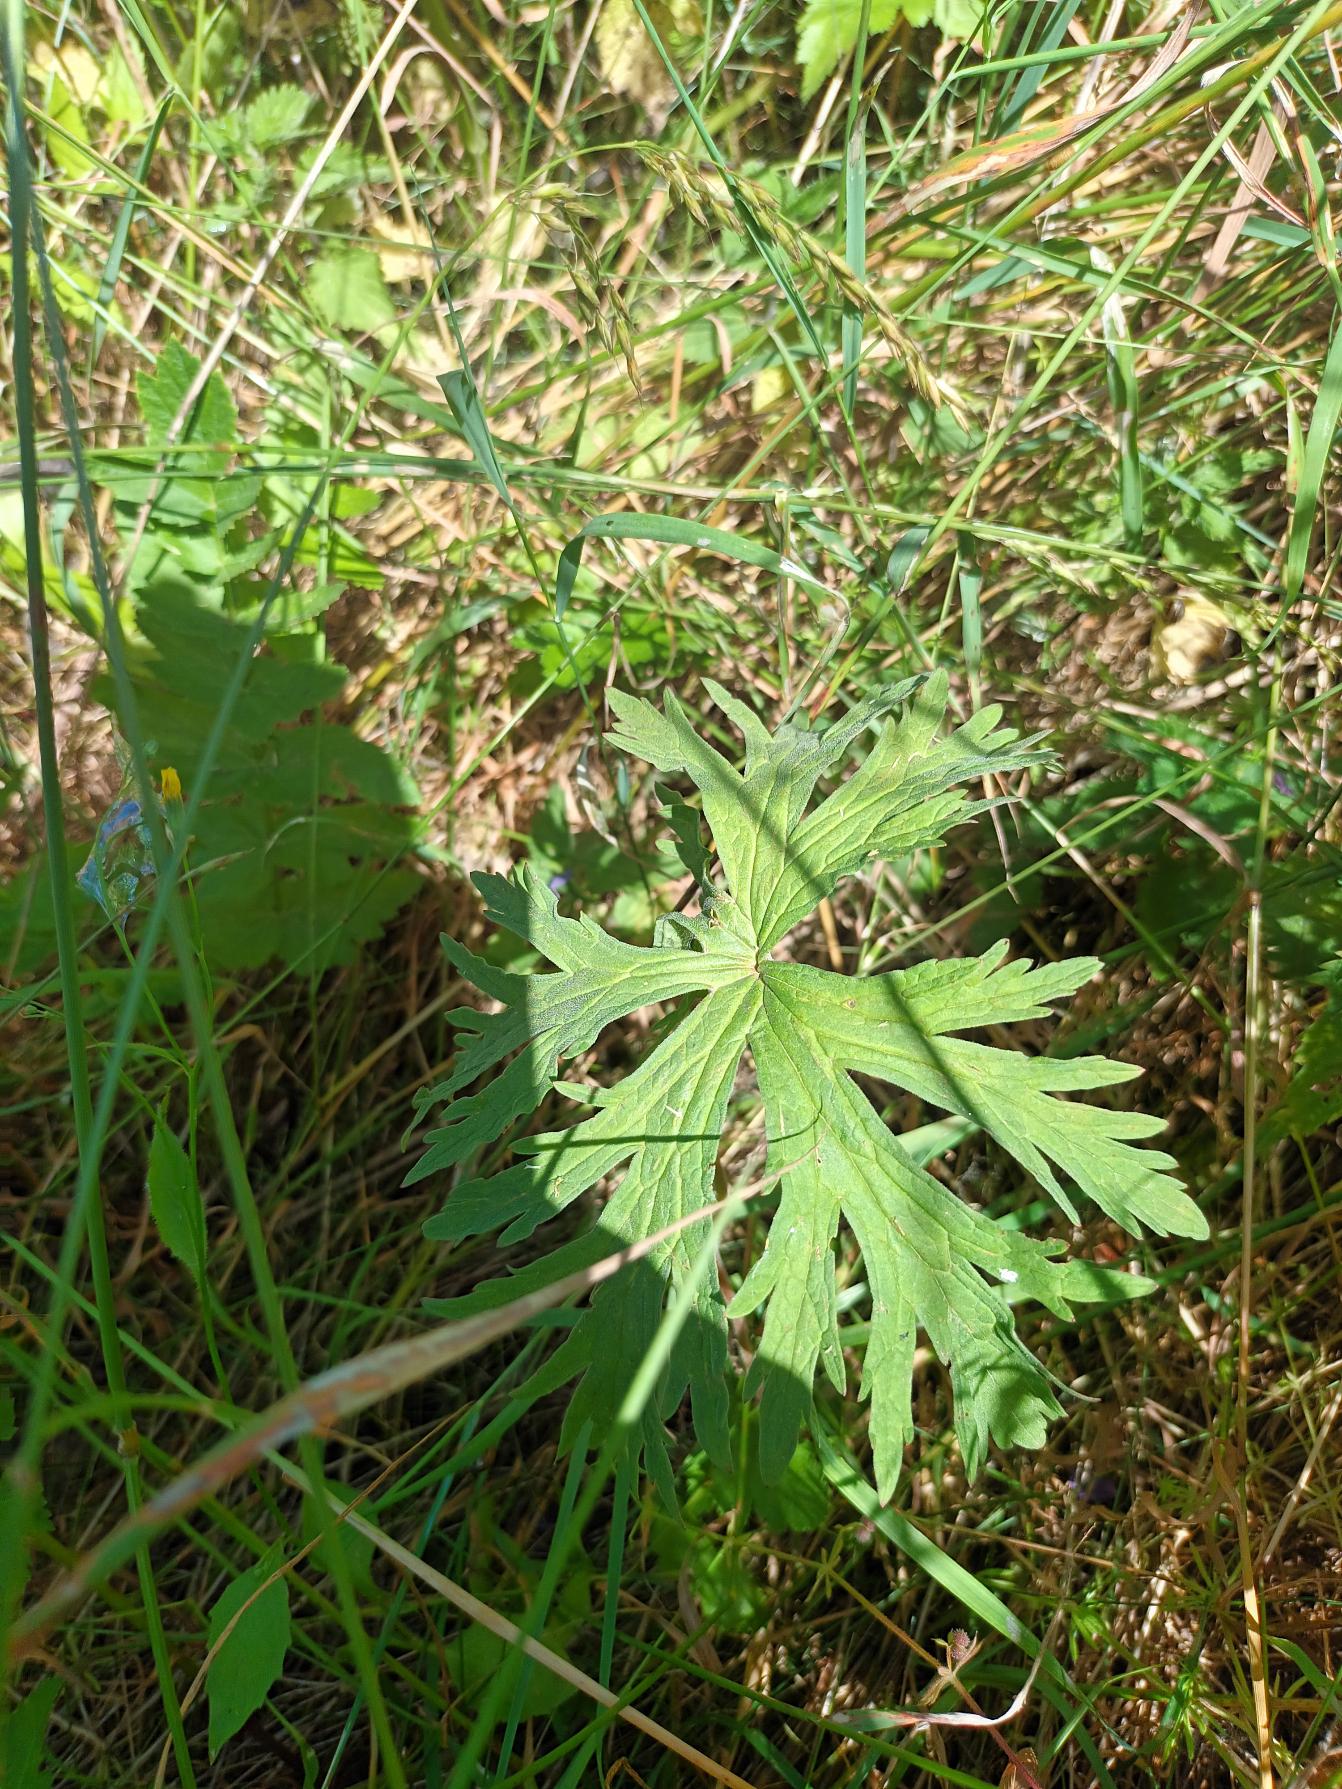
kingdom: Plantae
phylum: Tracheophyta
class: Magnoliopsida
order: Geraniales
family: Geraniaceae
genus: Geranium
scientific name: Geranium pratense
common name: Eng-storkenæb
